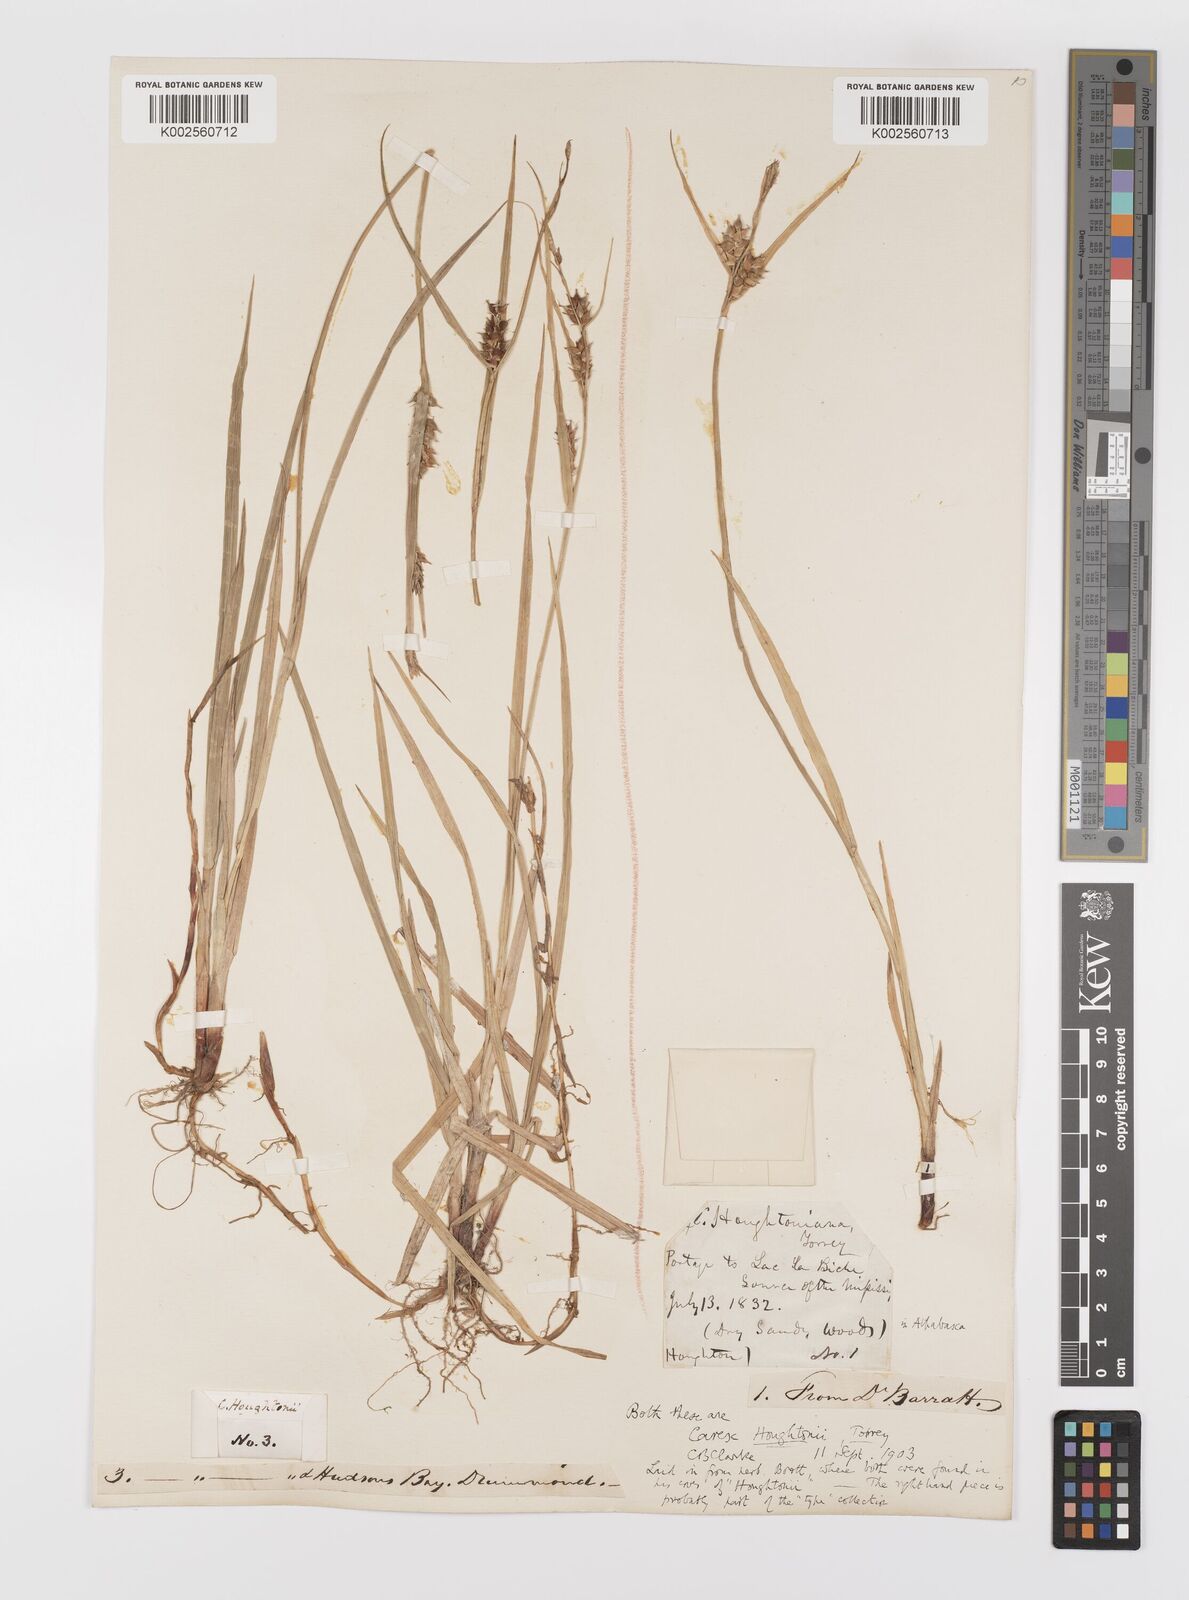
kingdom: Plantae
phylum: Tracheophyta
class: Liliopsida
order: Poales
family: Cyperaceae
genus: Carex
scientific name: Carex houghtoniana
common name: Houghton's sedge
